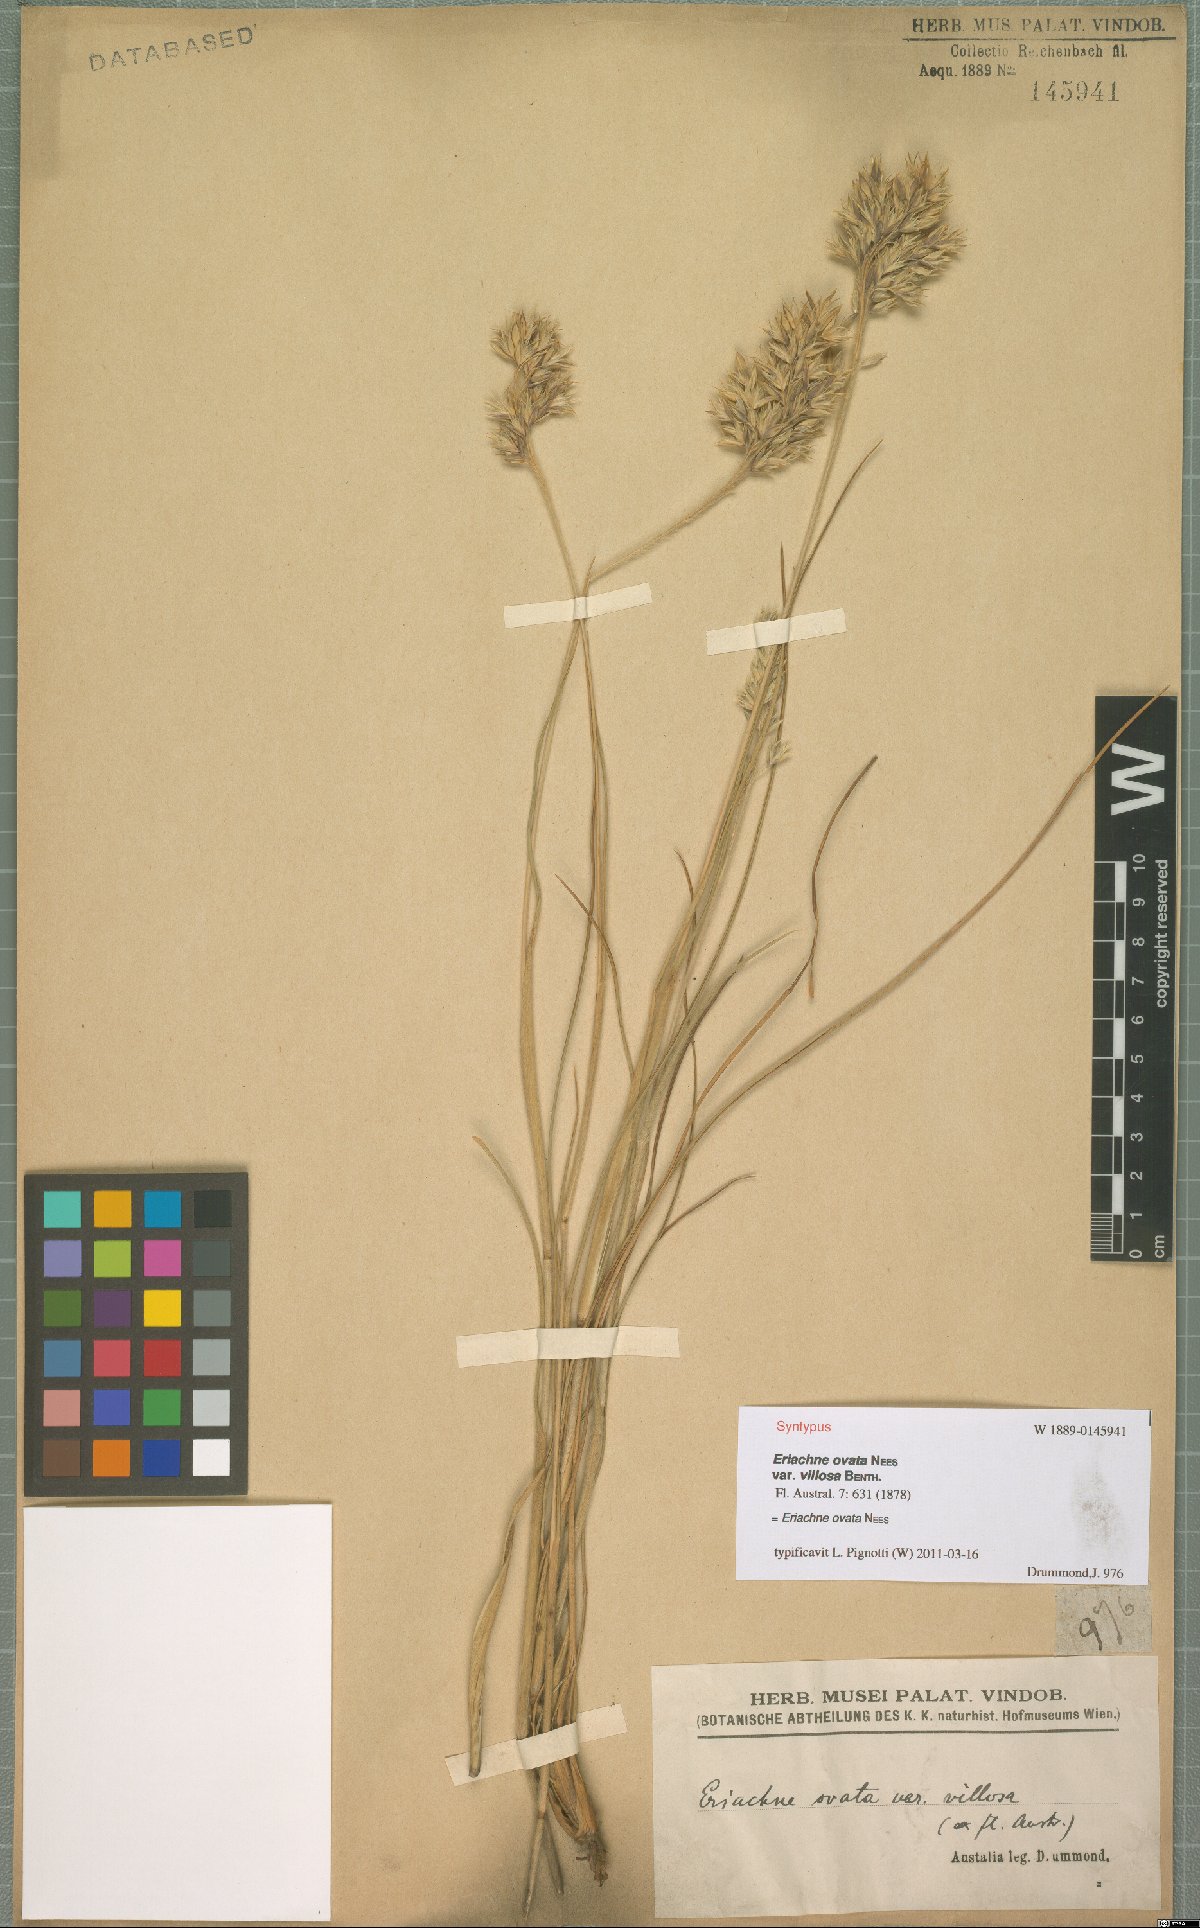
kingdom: Plantae
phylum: Tracheophyta
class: Liliopsida
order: Poales
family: Poaceae
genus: Eriachne
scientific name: Eriachne ovata
